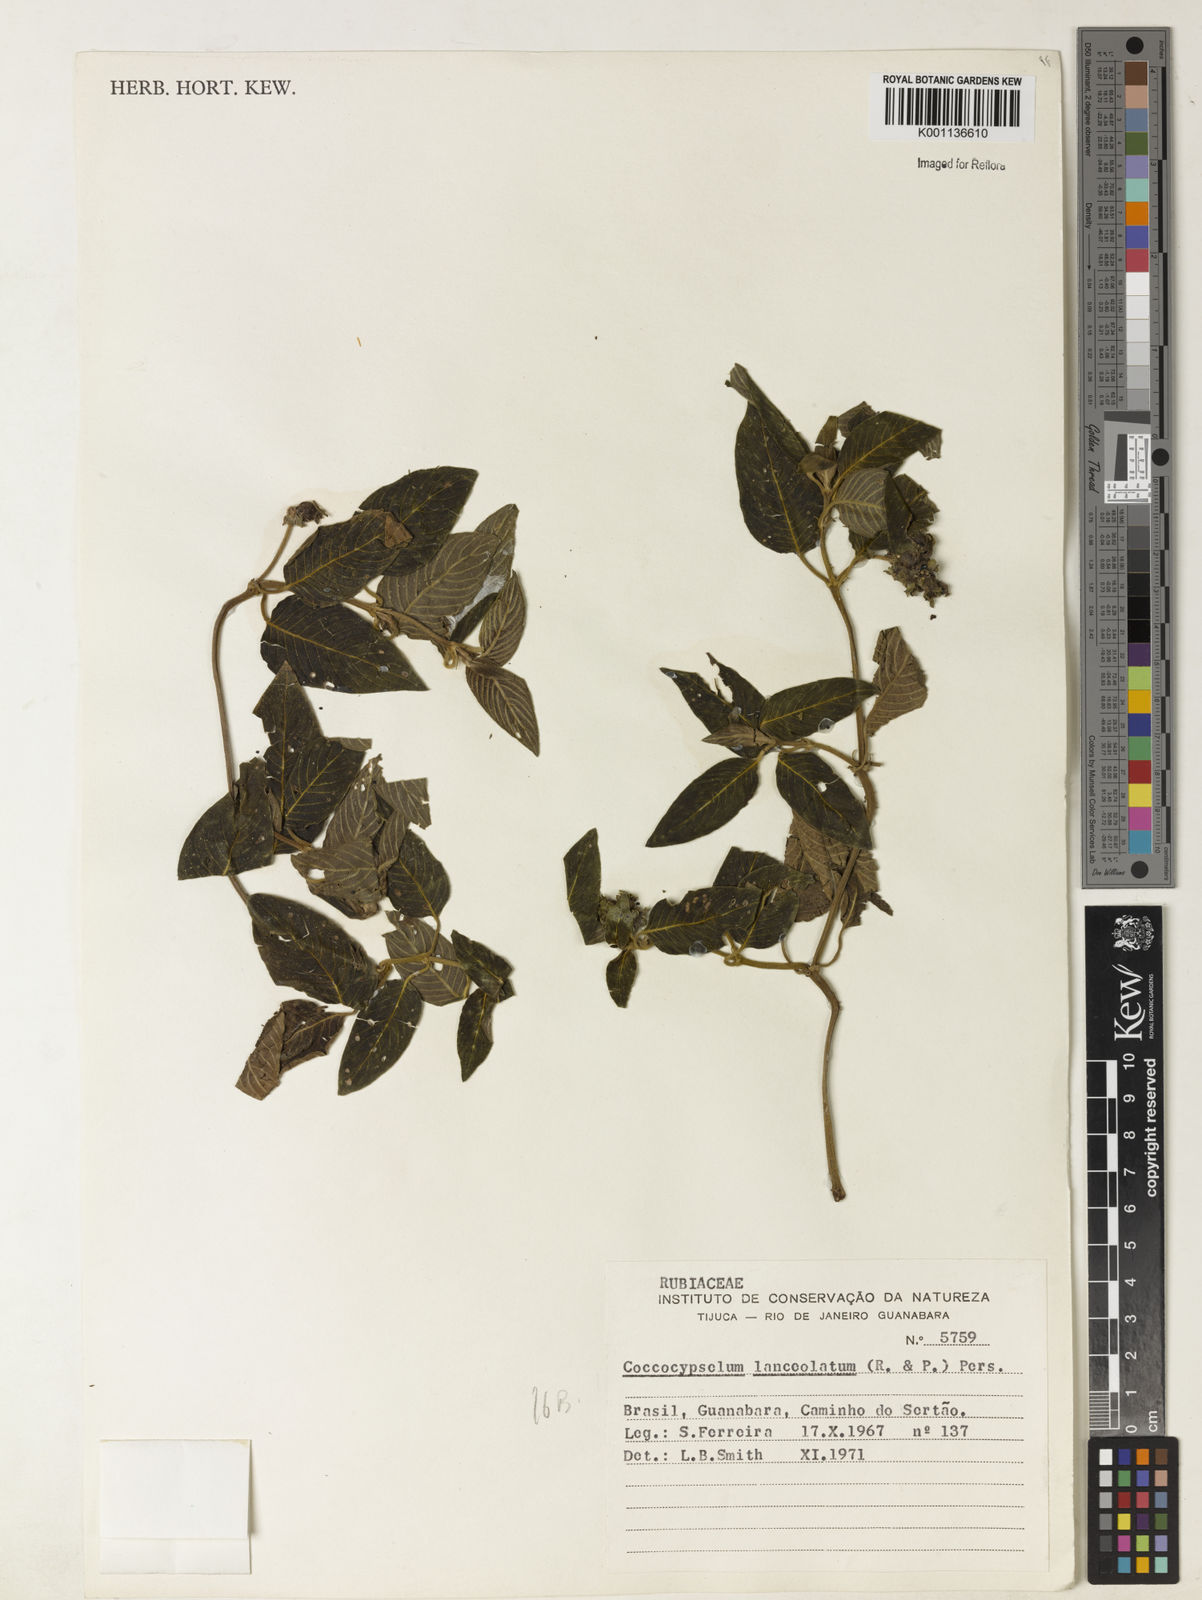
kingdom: Plantae
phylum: Tracheophyta
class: Magnoliopsida
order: Gentianales
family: Rubiaceae
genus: Coccocypselum
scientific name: Coccocypselum lanceolatum
